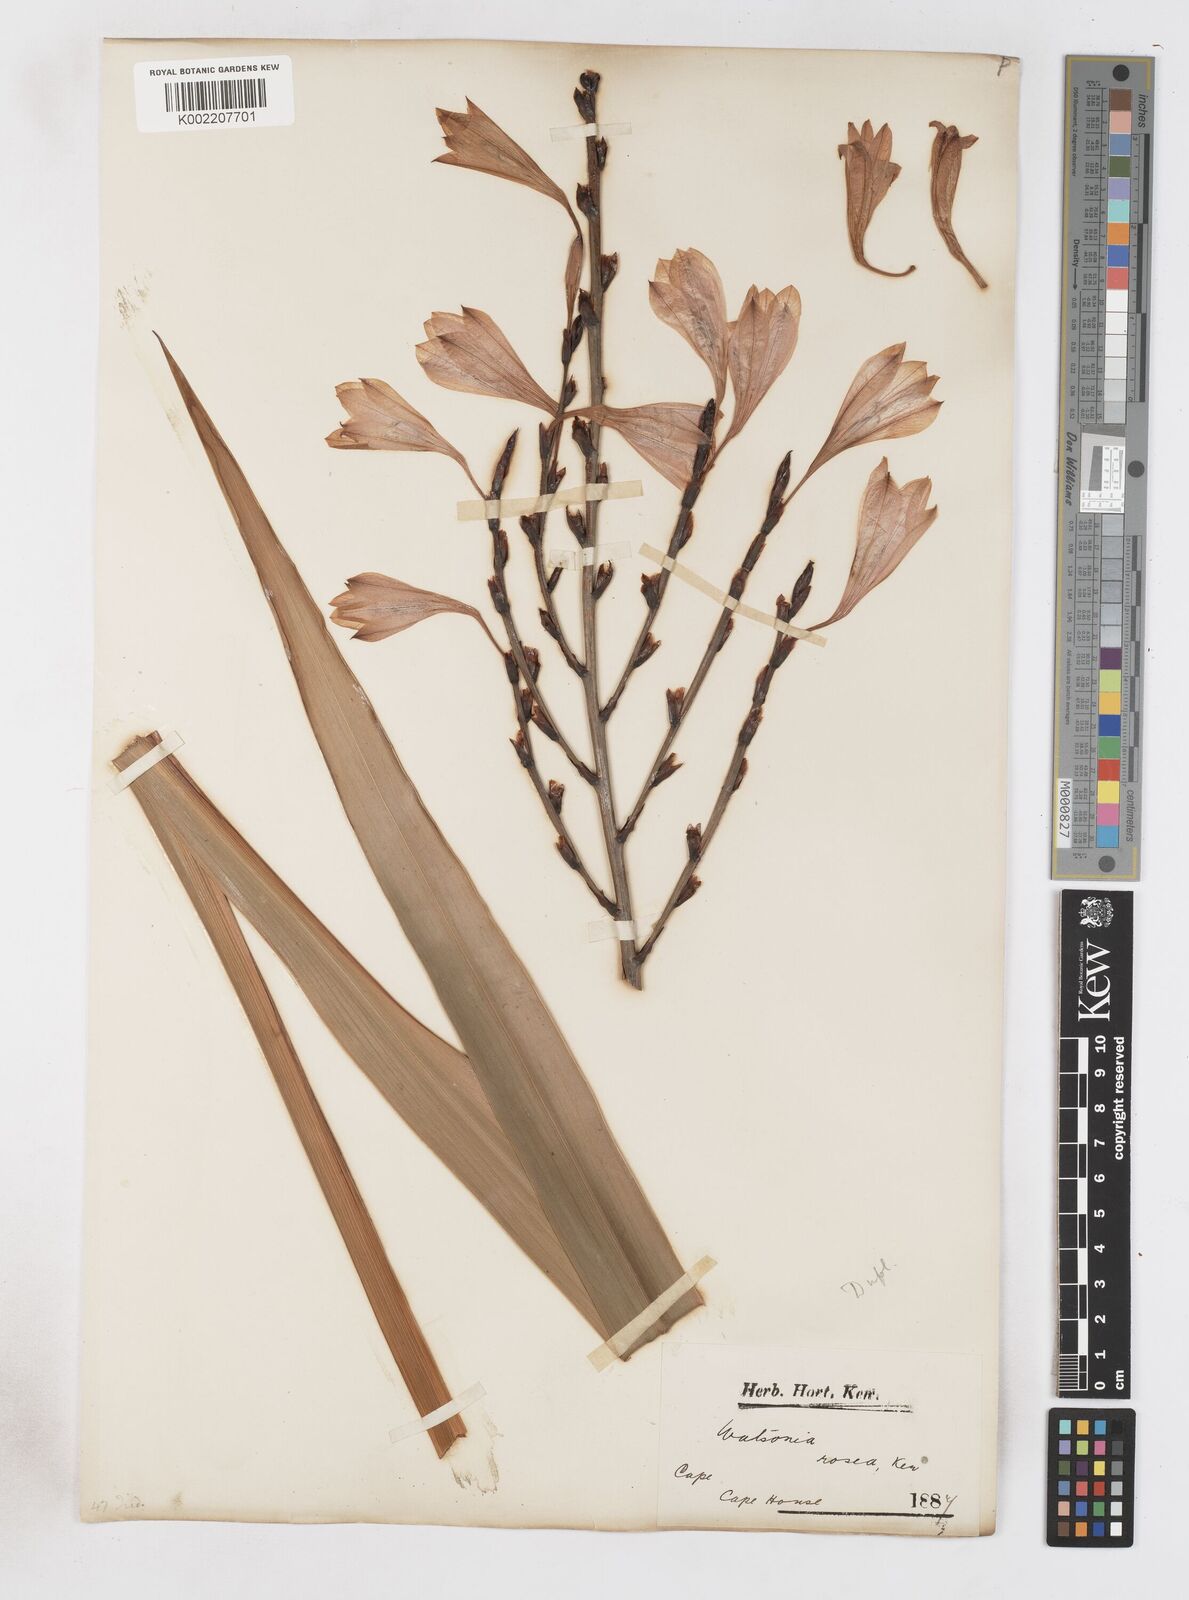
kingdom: Plantae
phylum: Tracheophyta
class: Liliopsida
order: Asparagales
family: Iridaceae
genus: Watsonia
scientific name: Watsonia borbonica
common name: Bugle-lily
